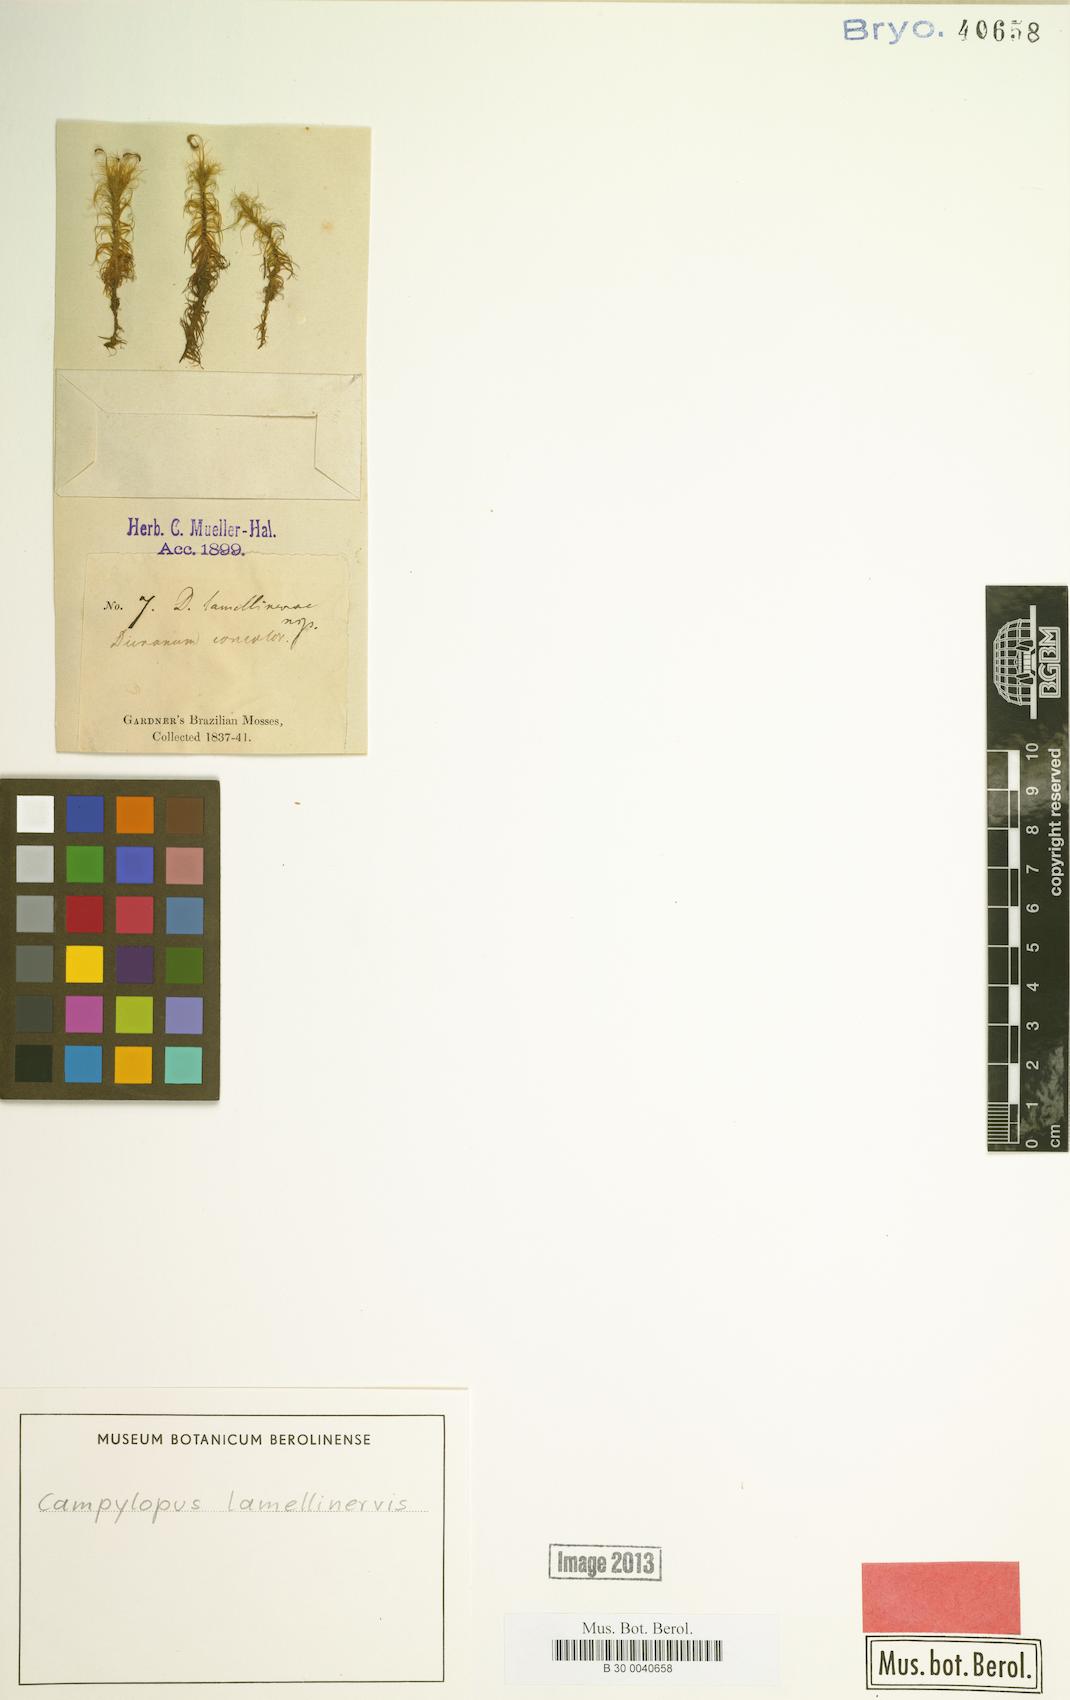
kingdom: Plantae
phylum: Bryophyta
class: Bryopsida
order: Dicranales
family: Leucobryaceae
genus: Campylopus
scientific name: Campylopus lamellinervis
